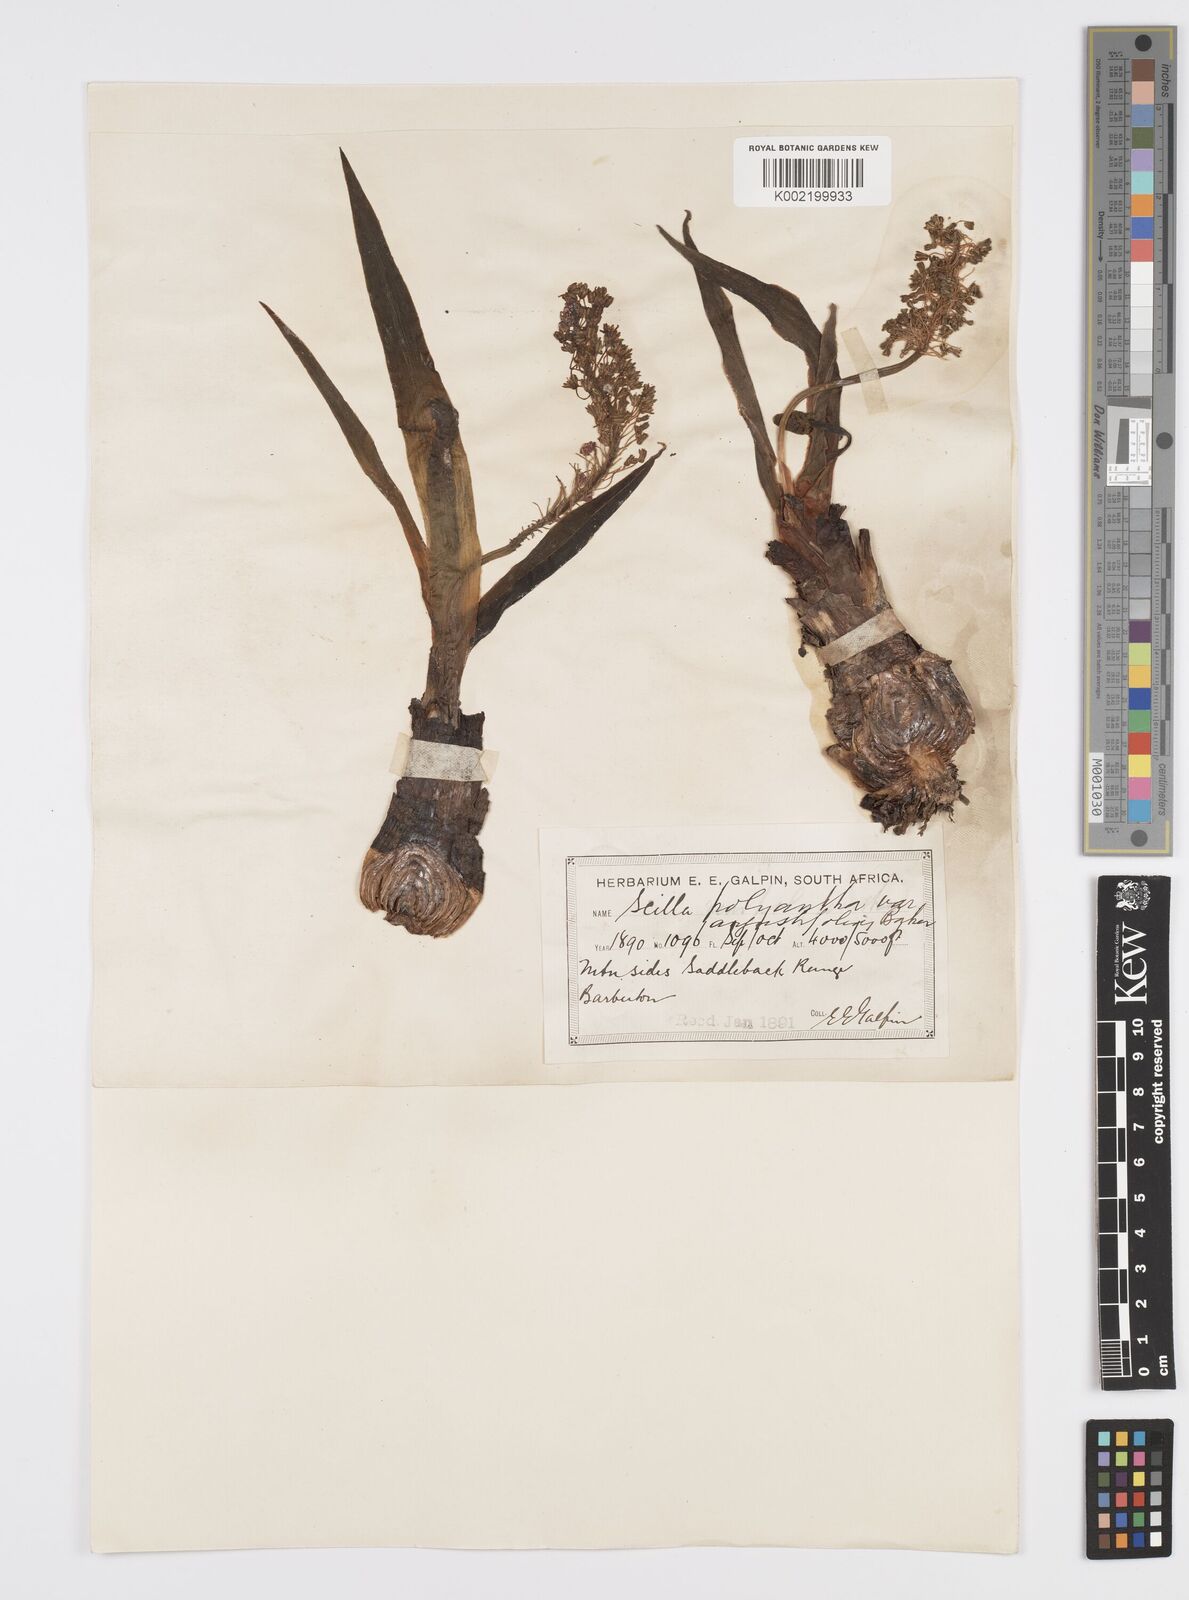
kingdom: Plantae
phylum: Tracheophyta
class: Liliopsida
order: Asparagales
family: Asparagaceae
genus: Ledebouria
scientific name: Ledebouria revoluta
